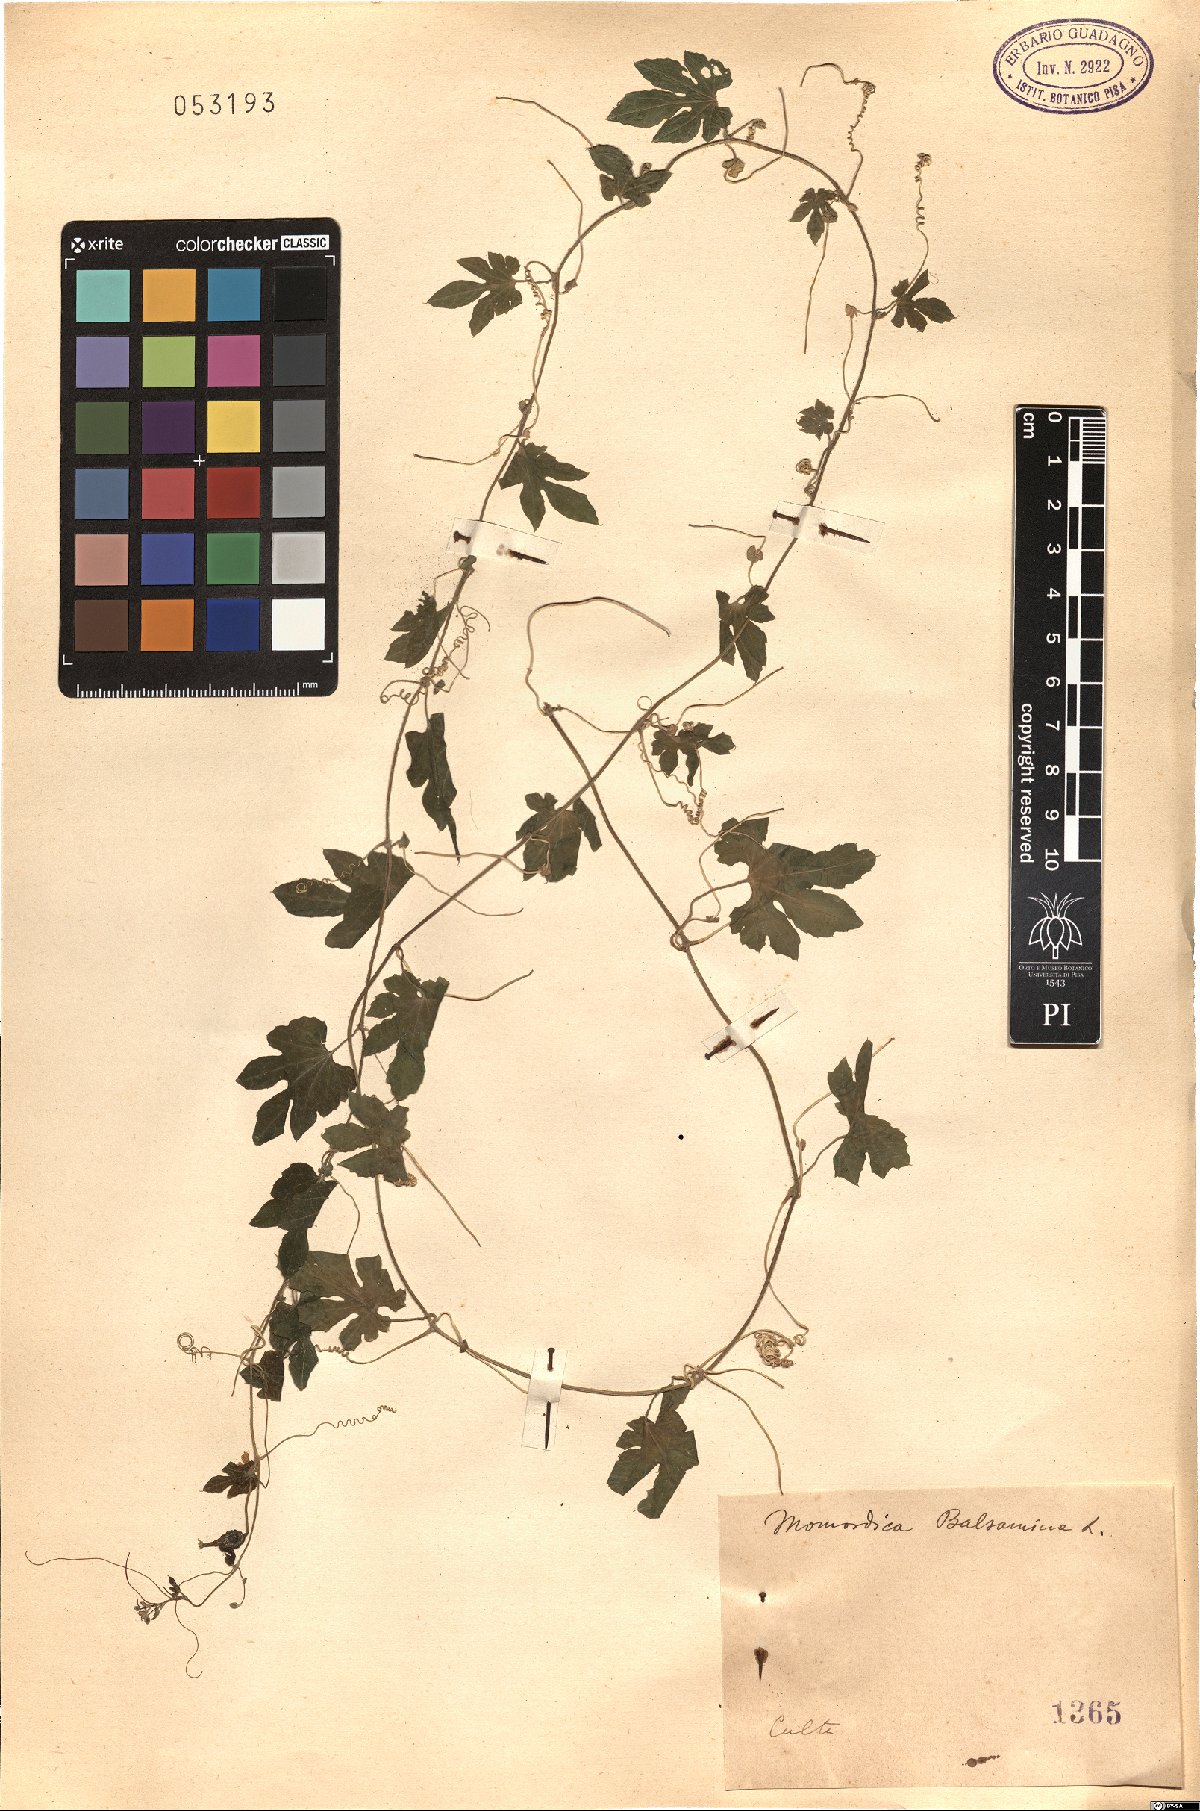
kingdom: Plantae
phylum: Tracheophyta
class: Magnoliopsida
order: Cucurbitales
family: Cucurbitaceae
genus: Momordica
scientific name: Momordica balsamina
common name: Southern balsampear
